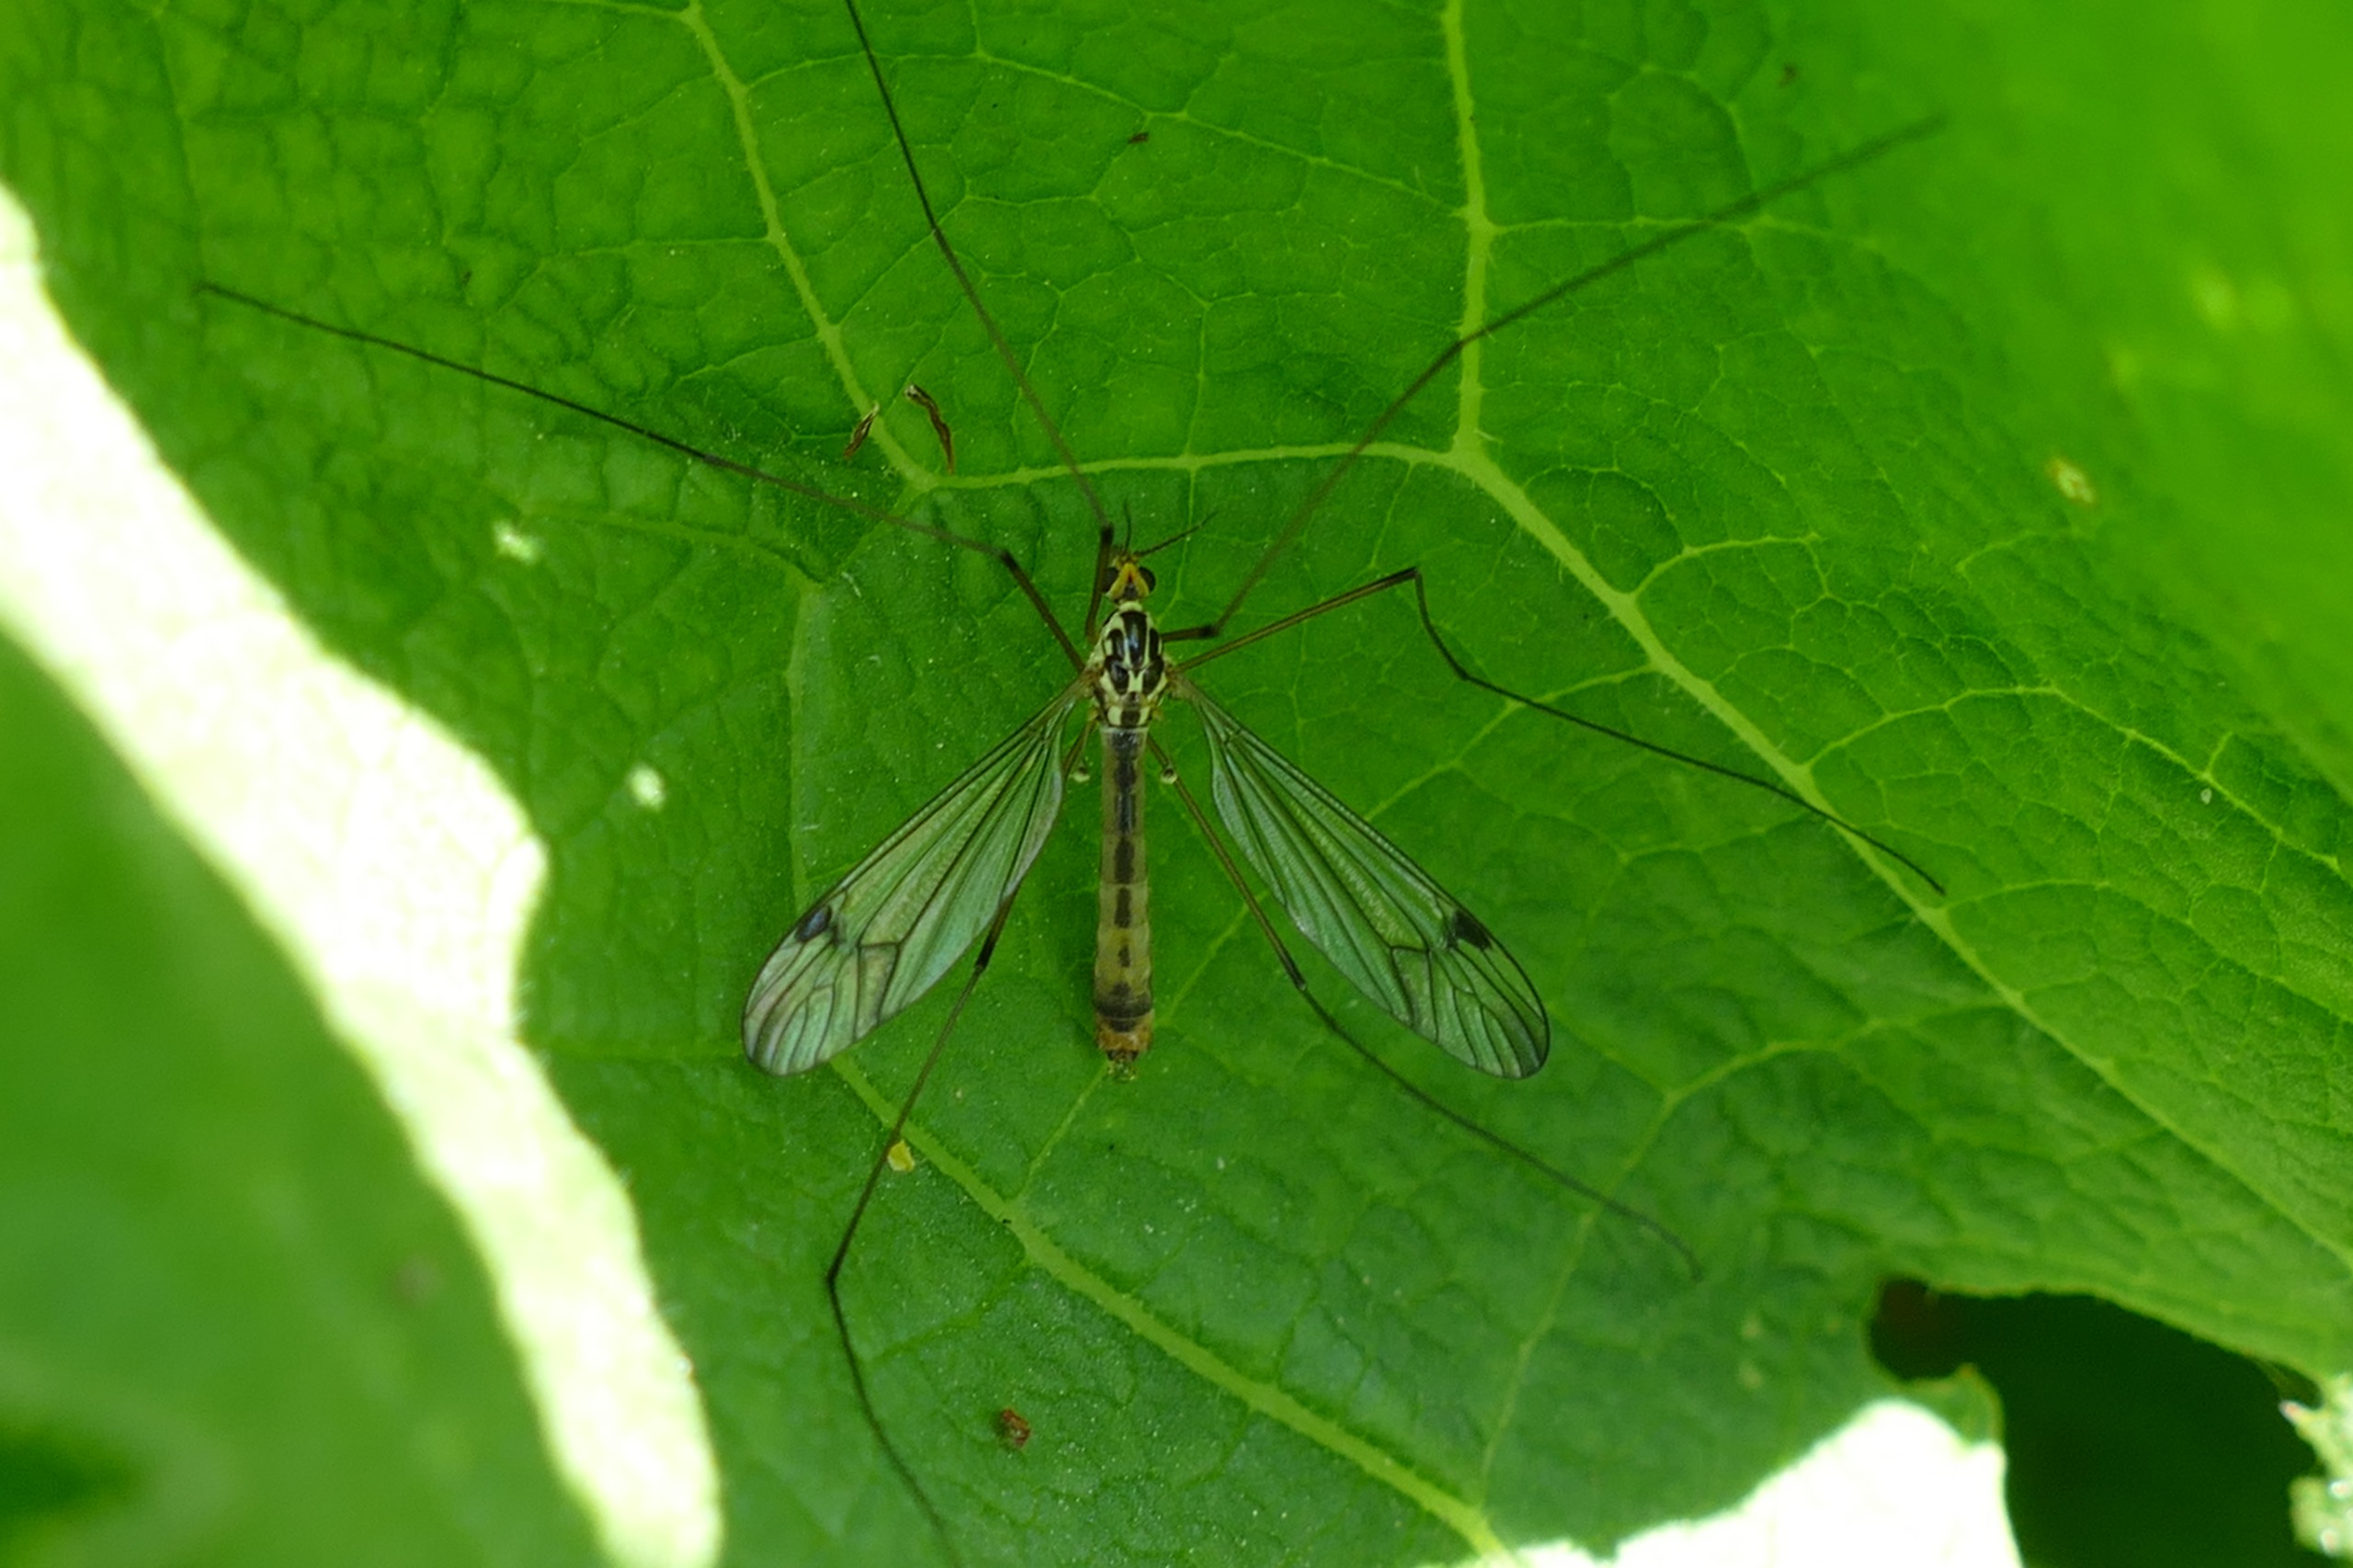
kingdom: Animalia
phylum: Arthropoda
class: Insecta
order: Diptera
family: Tipulidae
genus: Nephrotoma
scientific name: Nephrotoma quadrifaria
